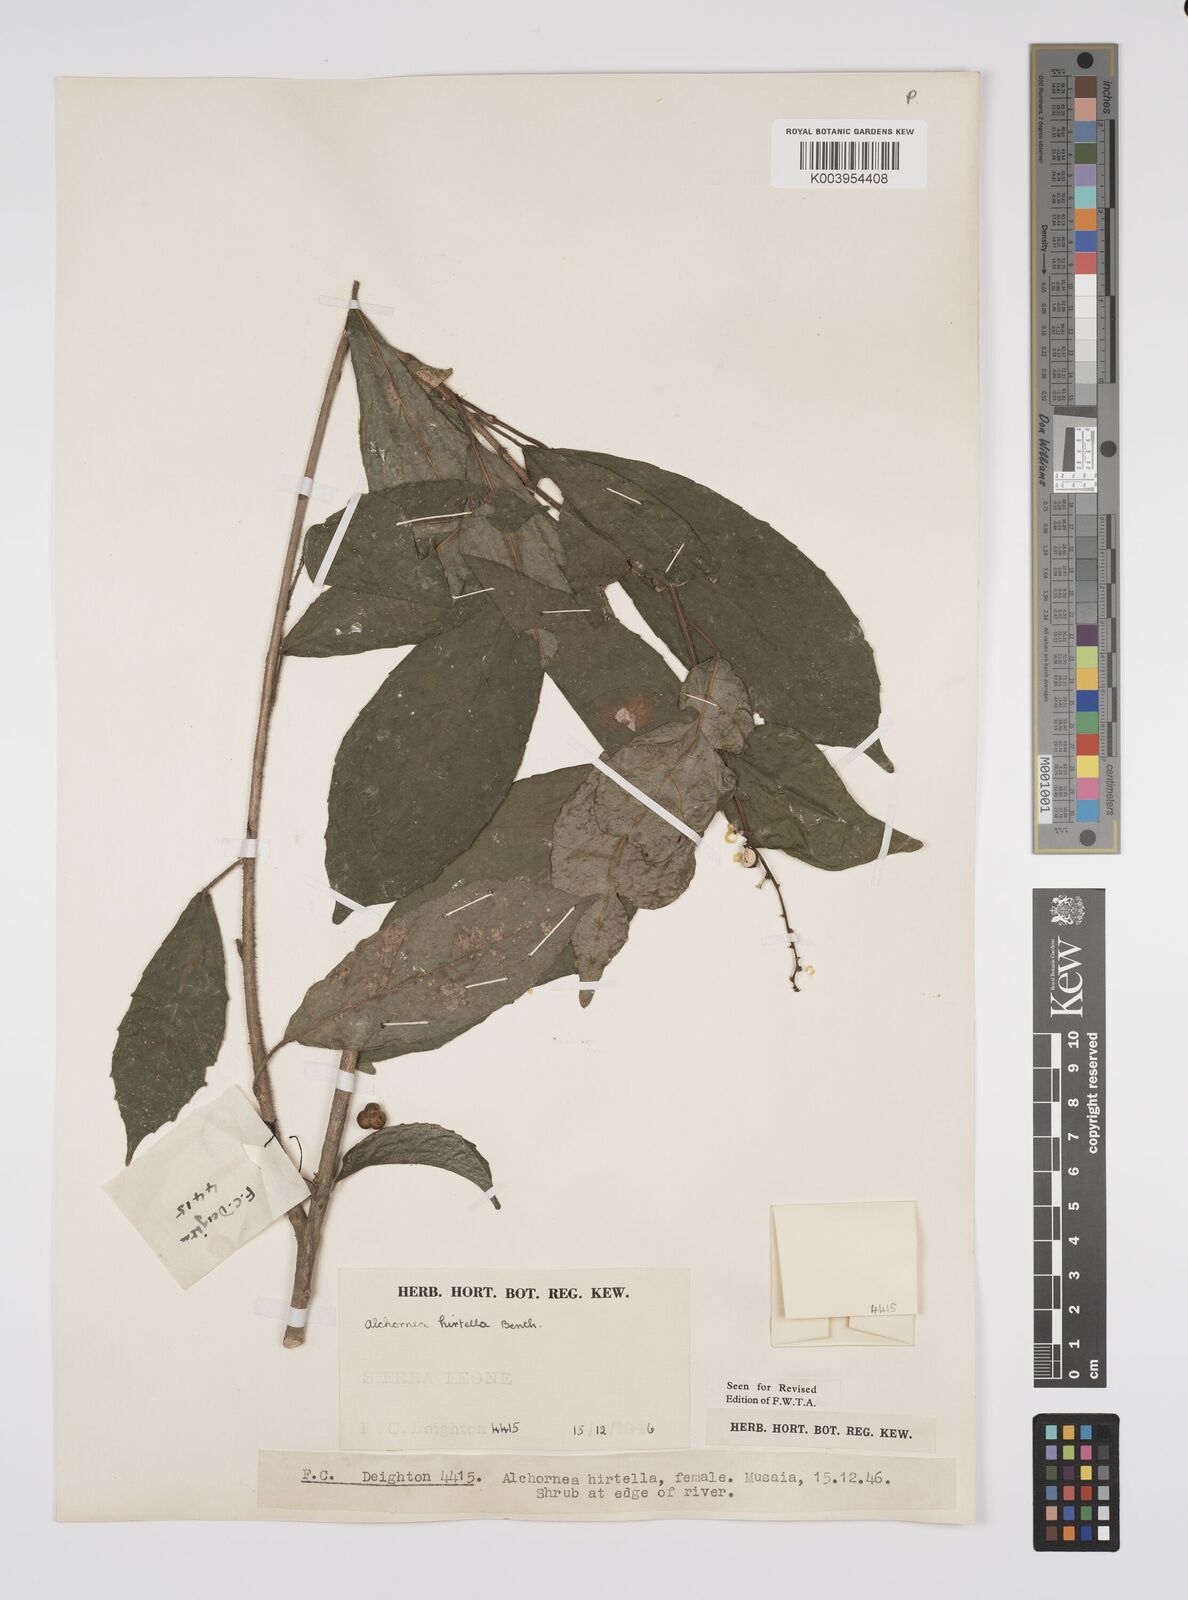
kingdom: Plantae
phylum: Tracheophyta
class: Magnoliopsida
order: Malpighiales
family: Euphorbiaceae
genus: Alchornea
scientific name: Alchornea hirtella
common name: Forest bead-string
